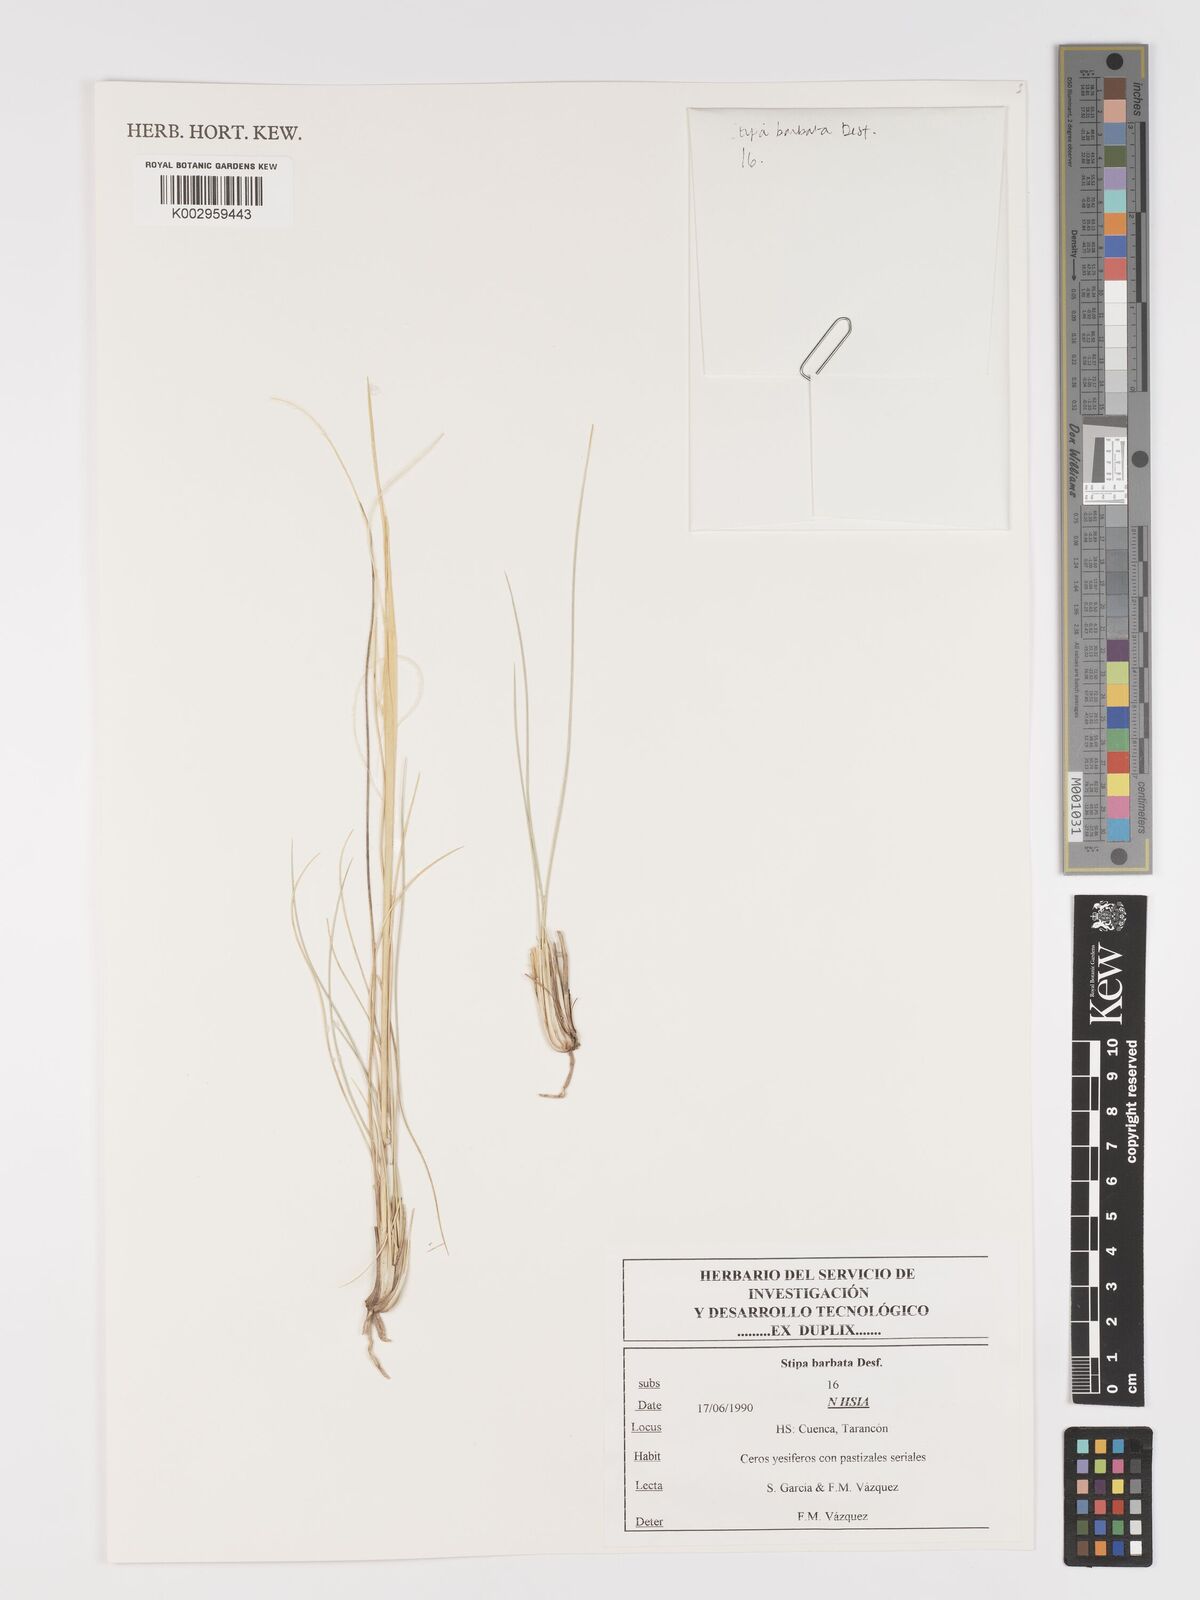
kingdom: Plantae
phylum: Tracheophyta
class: Liliopsida
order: Poales
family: Poaceae
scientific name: Poaceae
